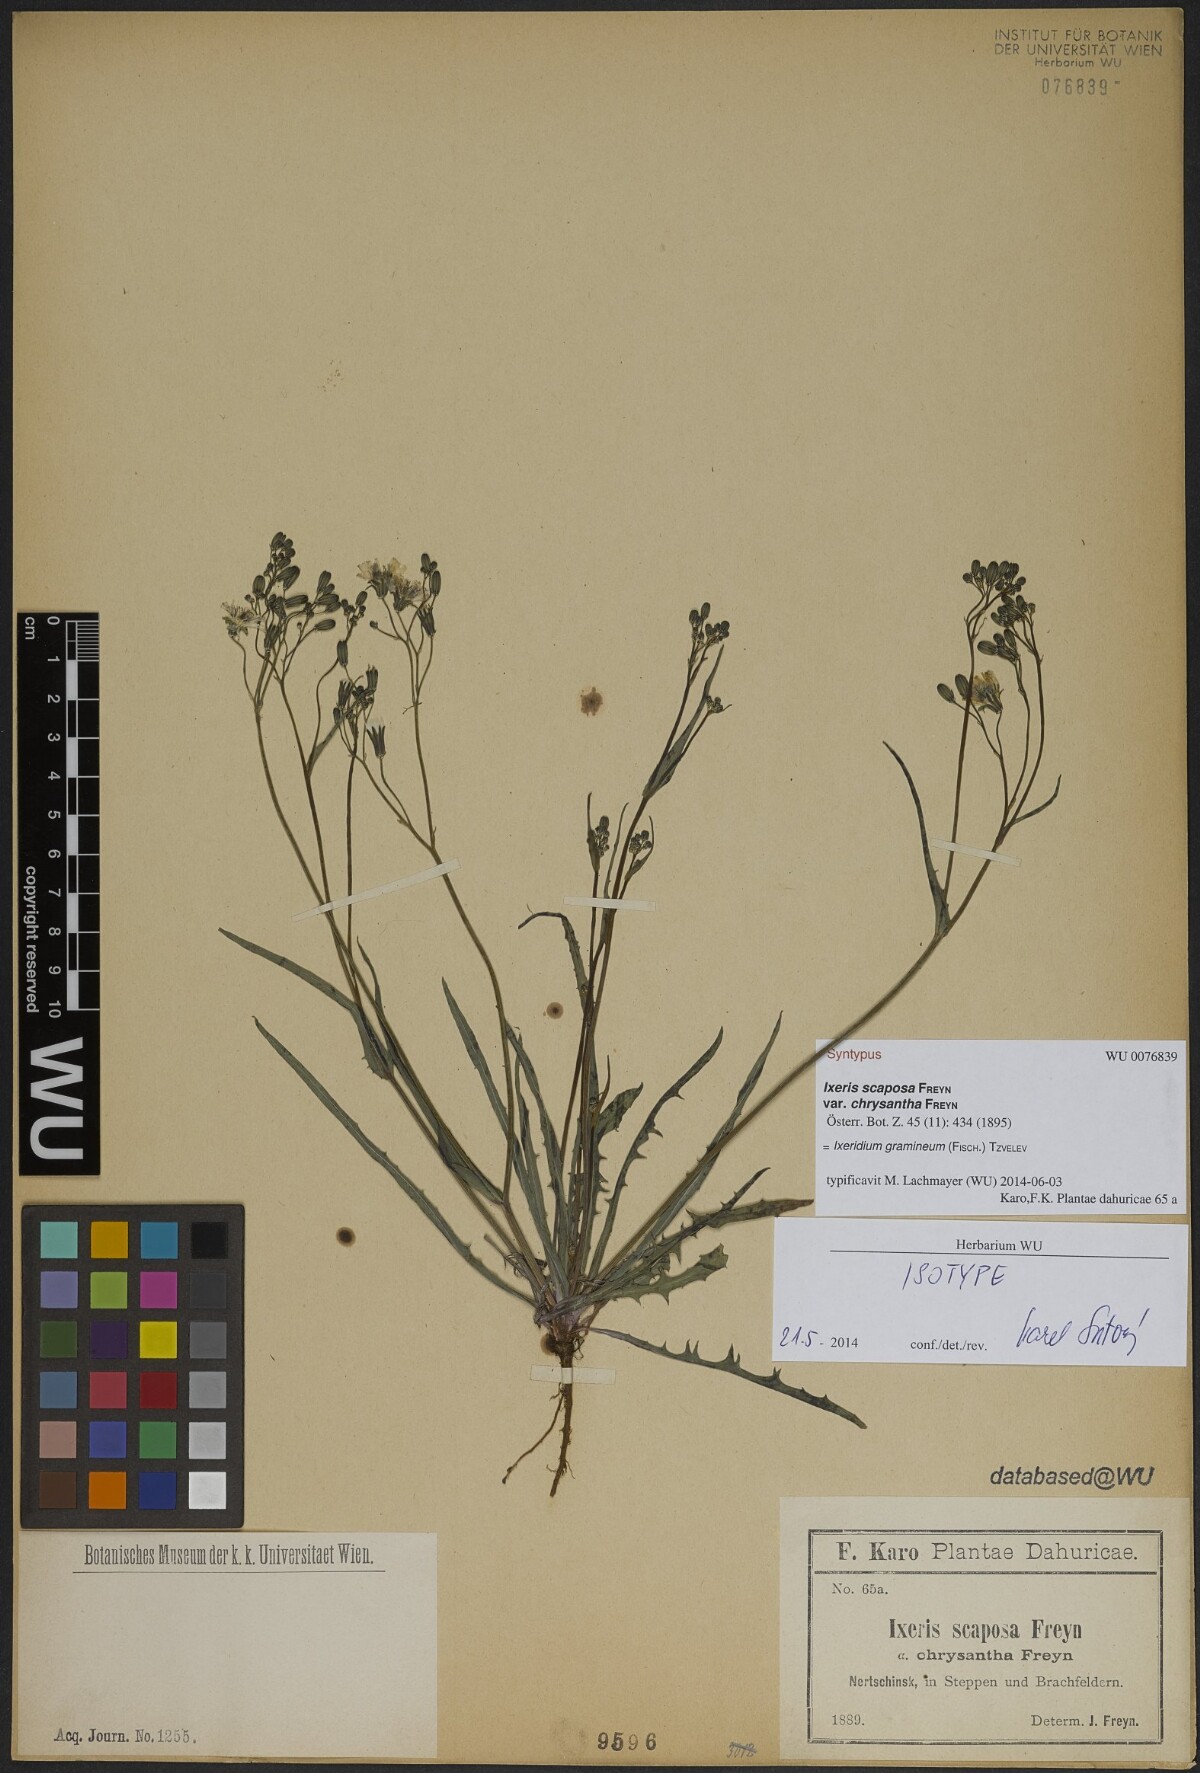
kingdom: Plantae
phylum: Tracheophyta
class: Magnoliopsida
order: Asterales
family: Asteraceae
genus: Ixeris
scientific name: Ixeris chinensis
